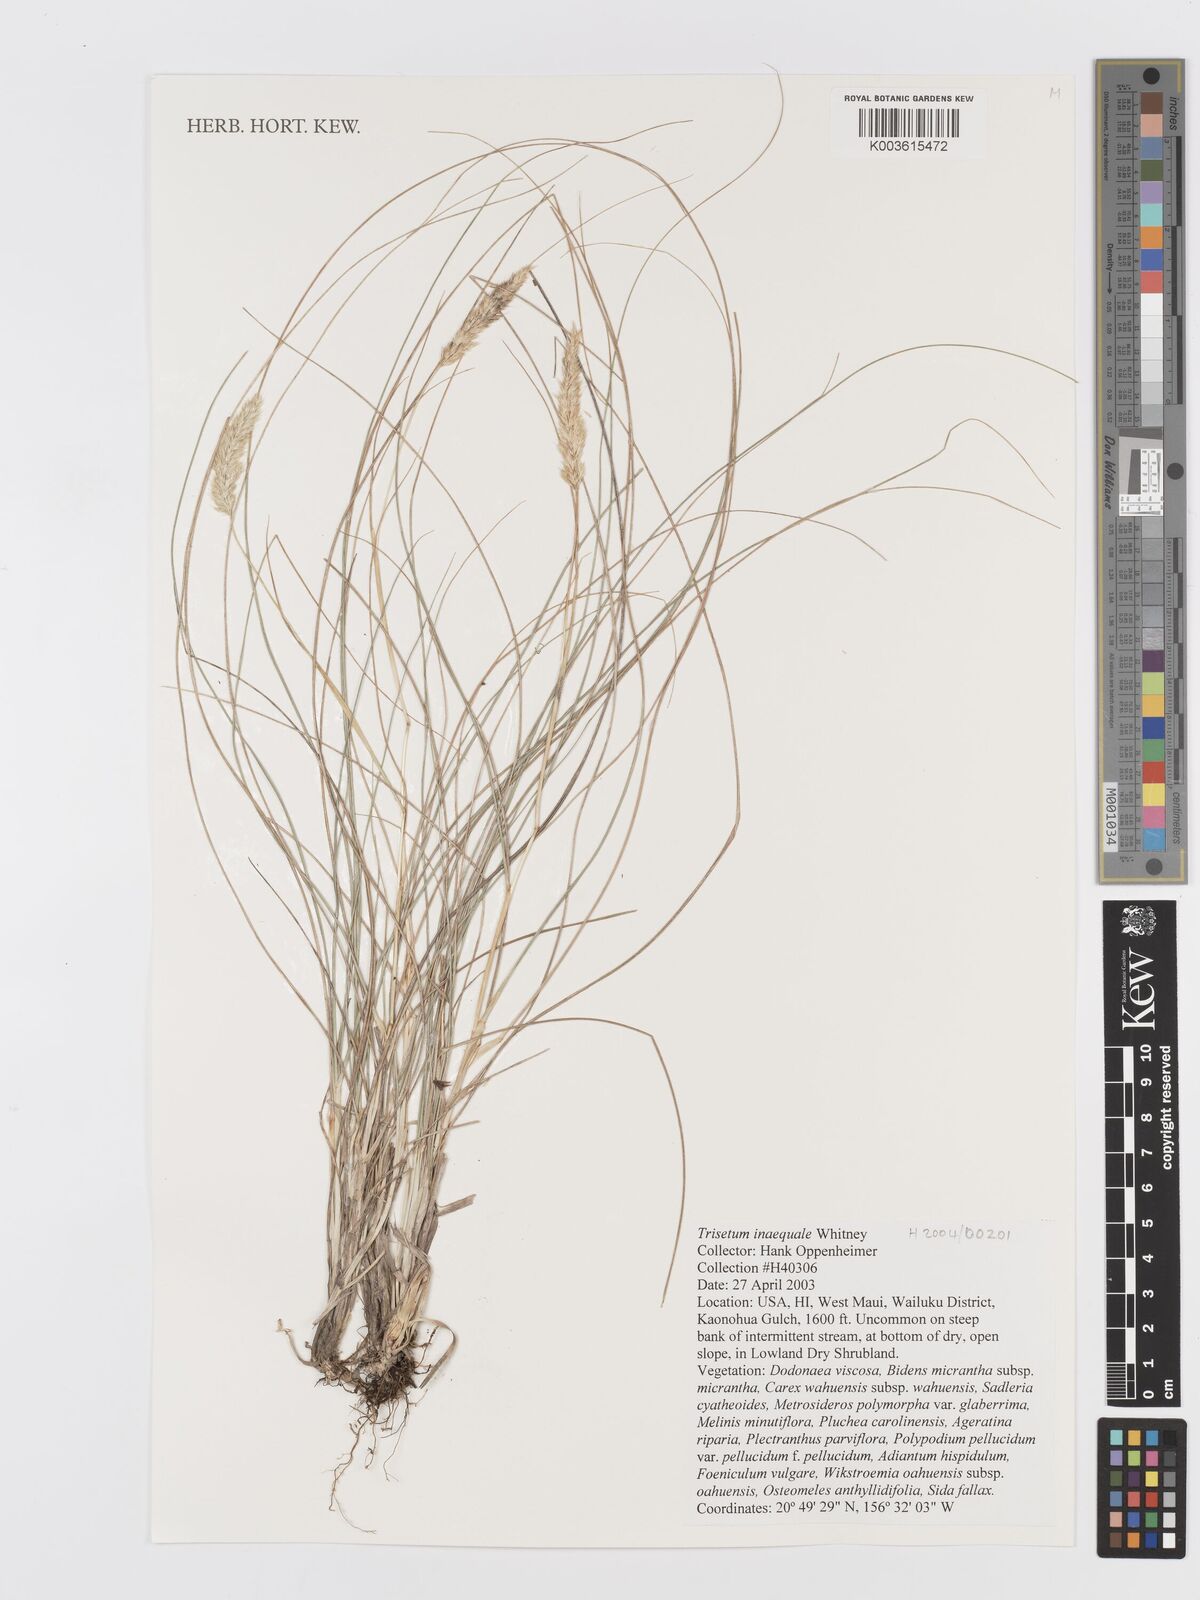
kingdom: Plantae
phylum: Tracheophyta
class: Liliopsida
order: Poales
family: Poaceae
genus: Koeleria
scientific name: Koeleria inaequalis
